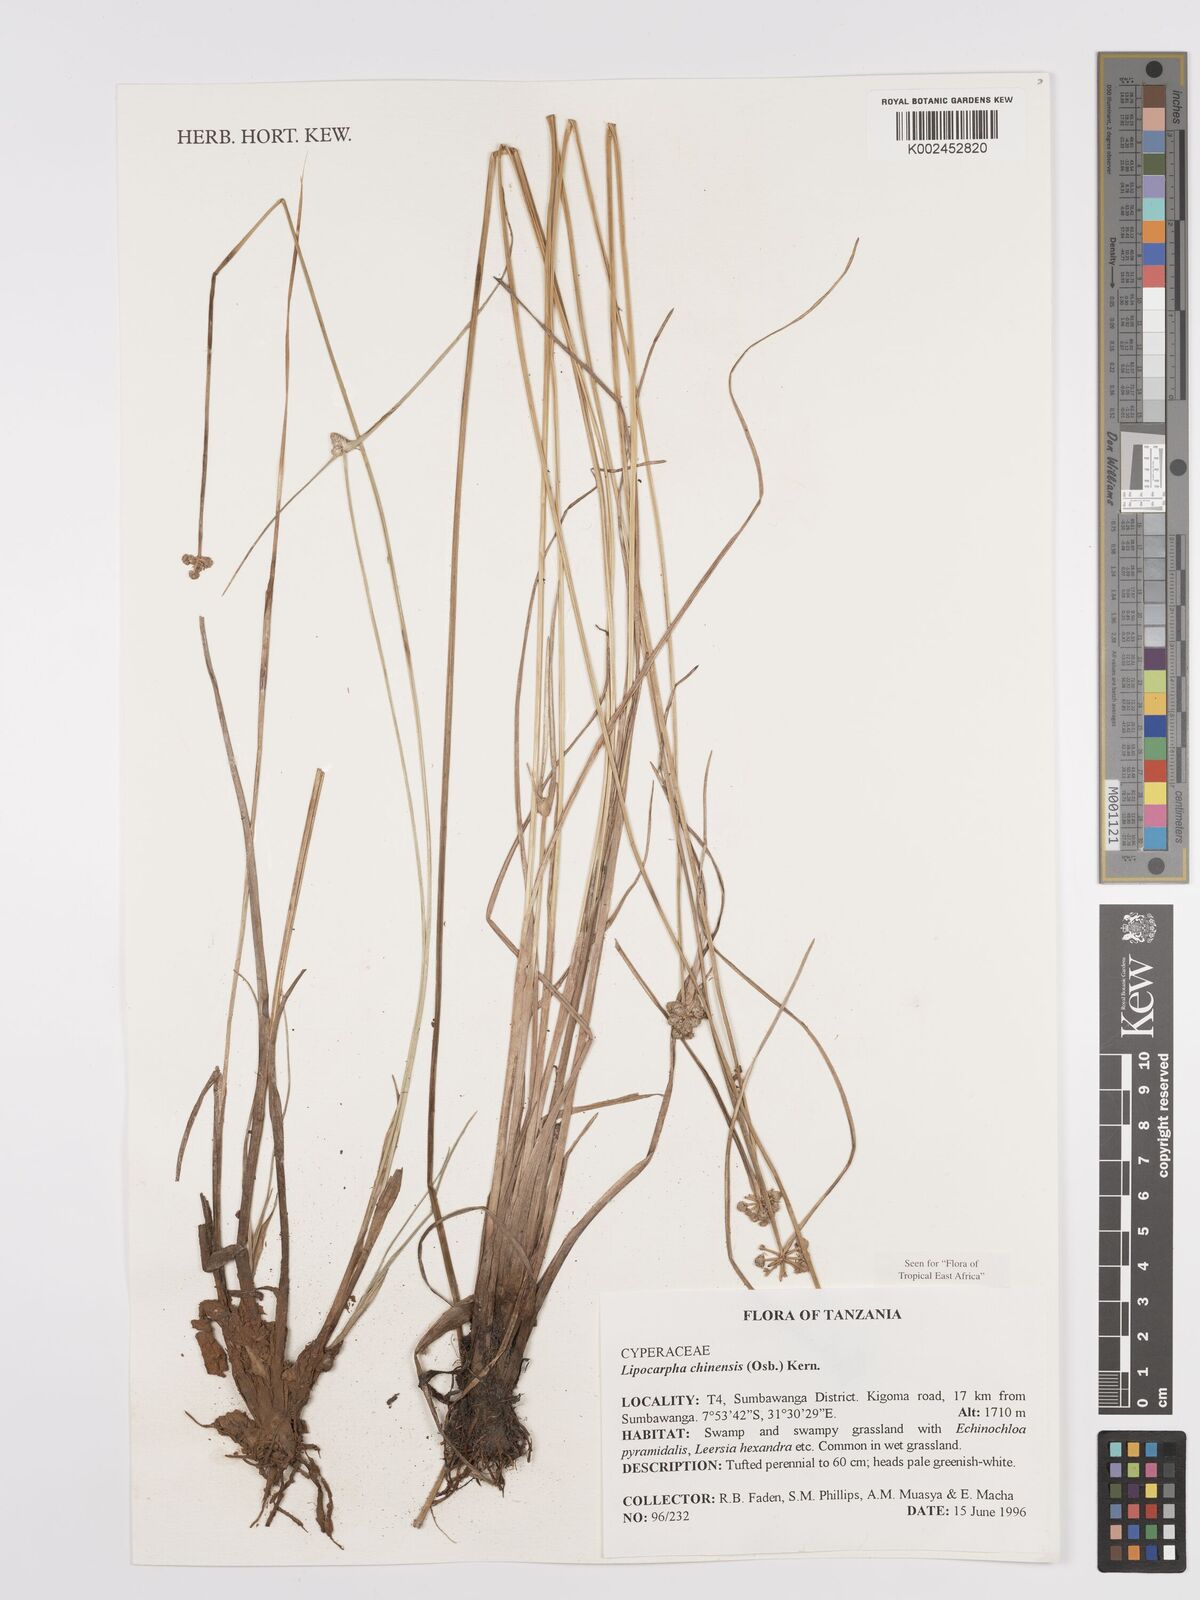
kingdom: Plantae
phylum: Tracheophyta
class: Liliopsida
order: Poales
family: Cyperaceae
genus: Cyperus
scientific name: Cyperus
